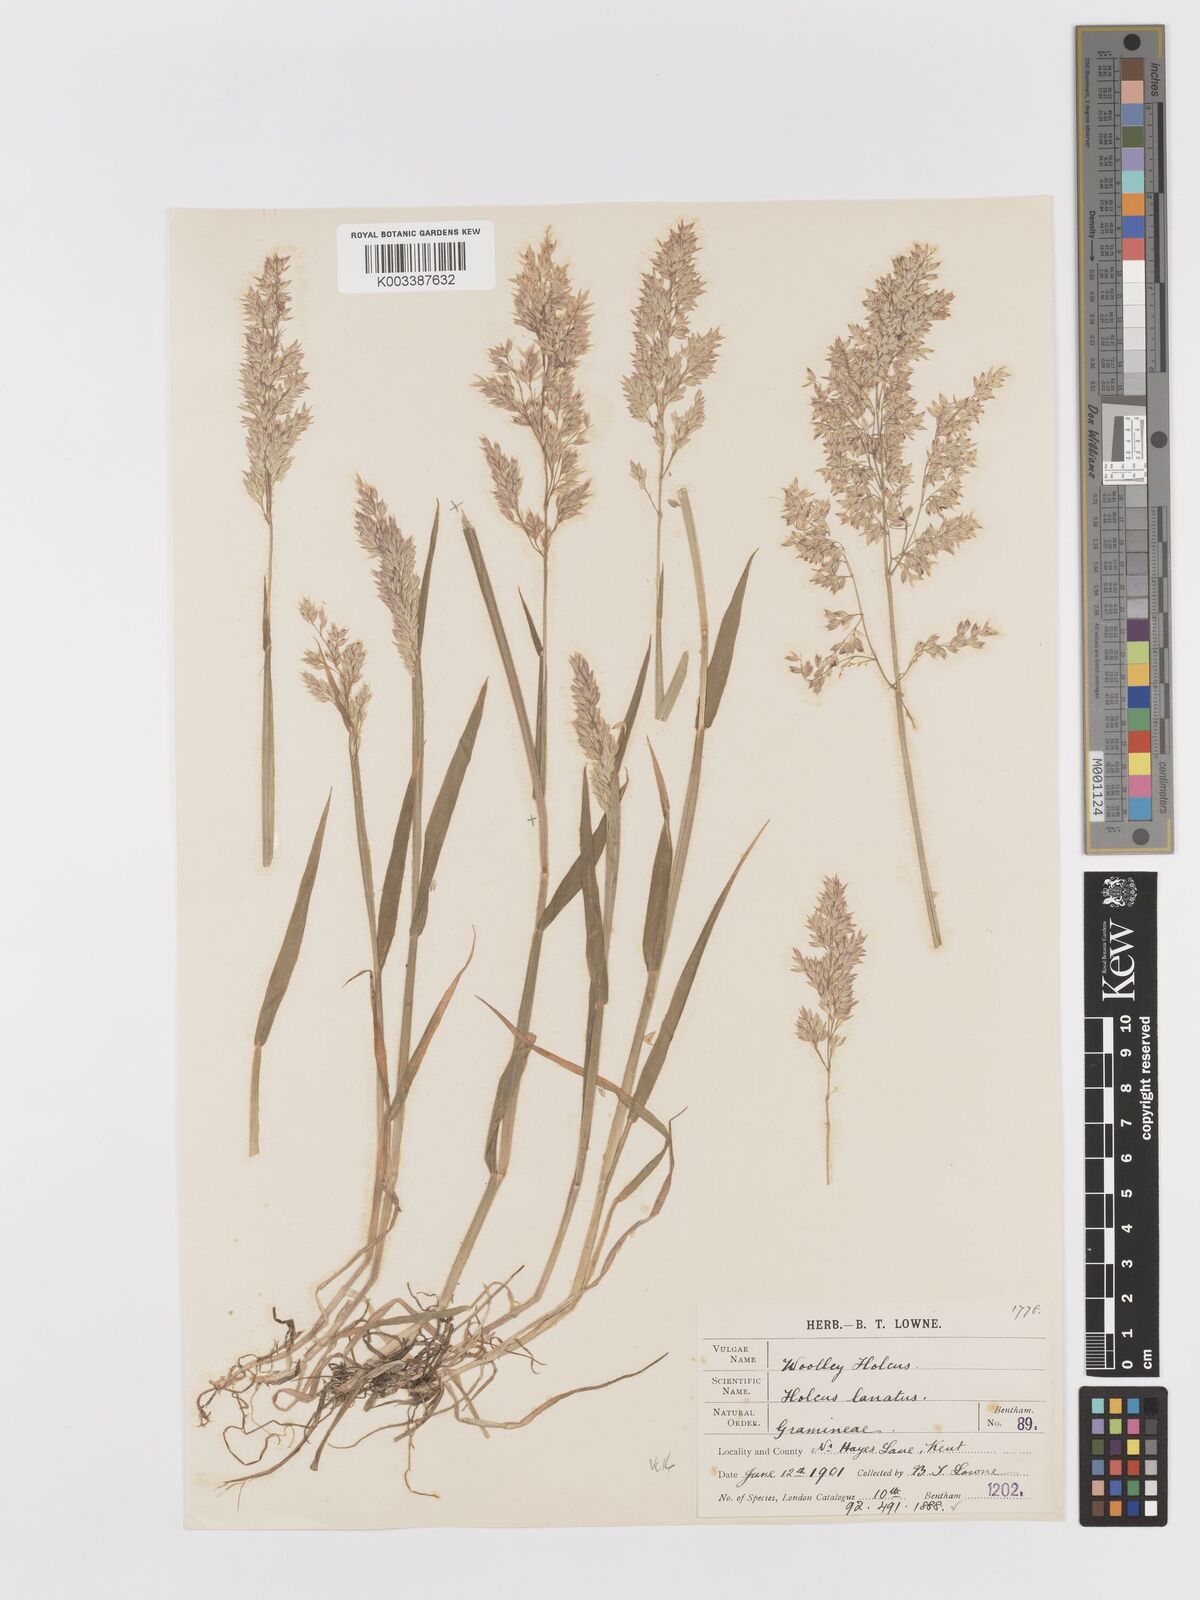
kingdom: Plantae
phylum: Tracheophyta
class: Liliopsida
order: Poales
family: Poaceae
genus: Holcus
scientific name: Holcus lanatus
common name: Yorkshire-fog
